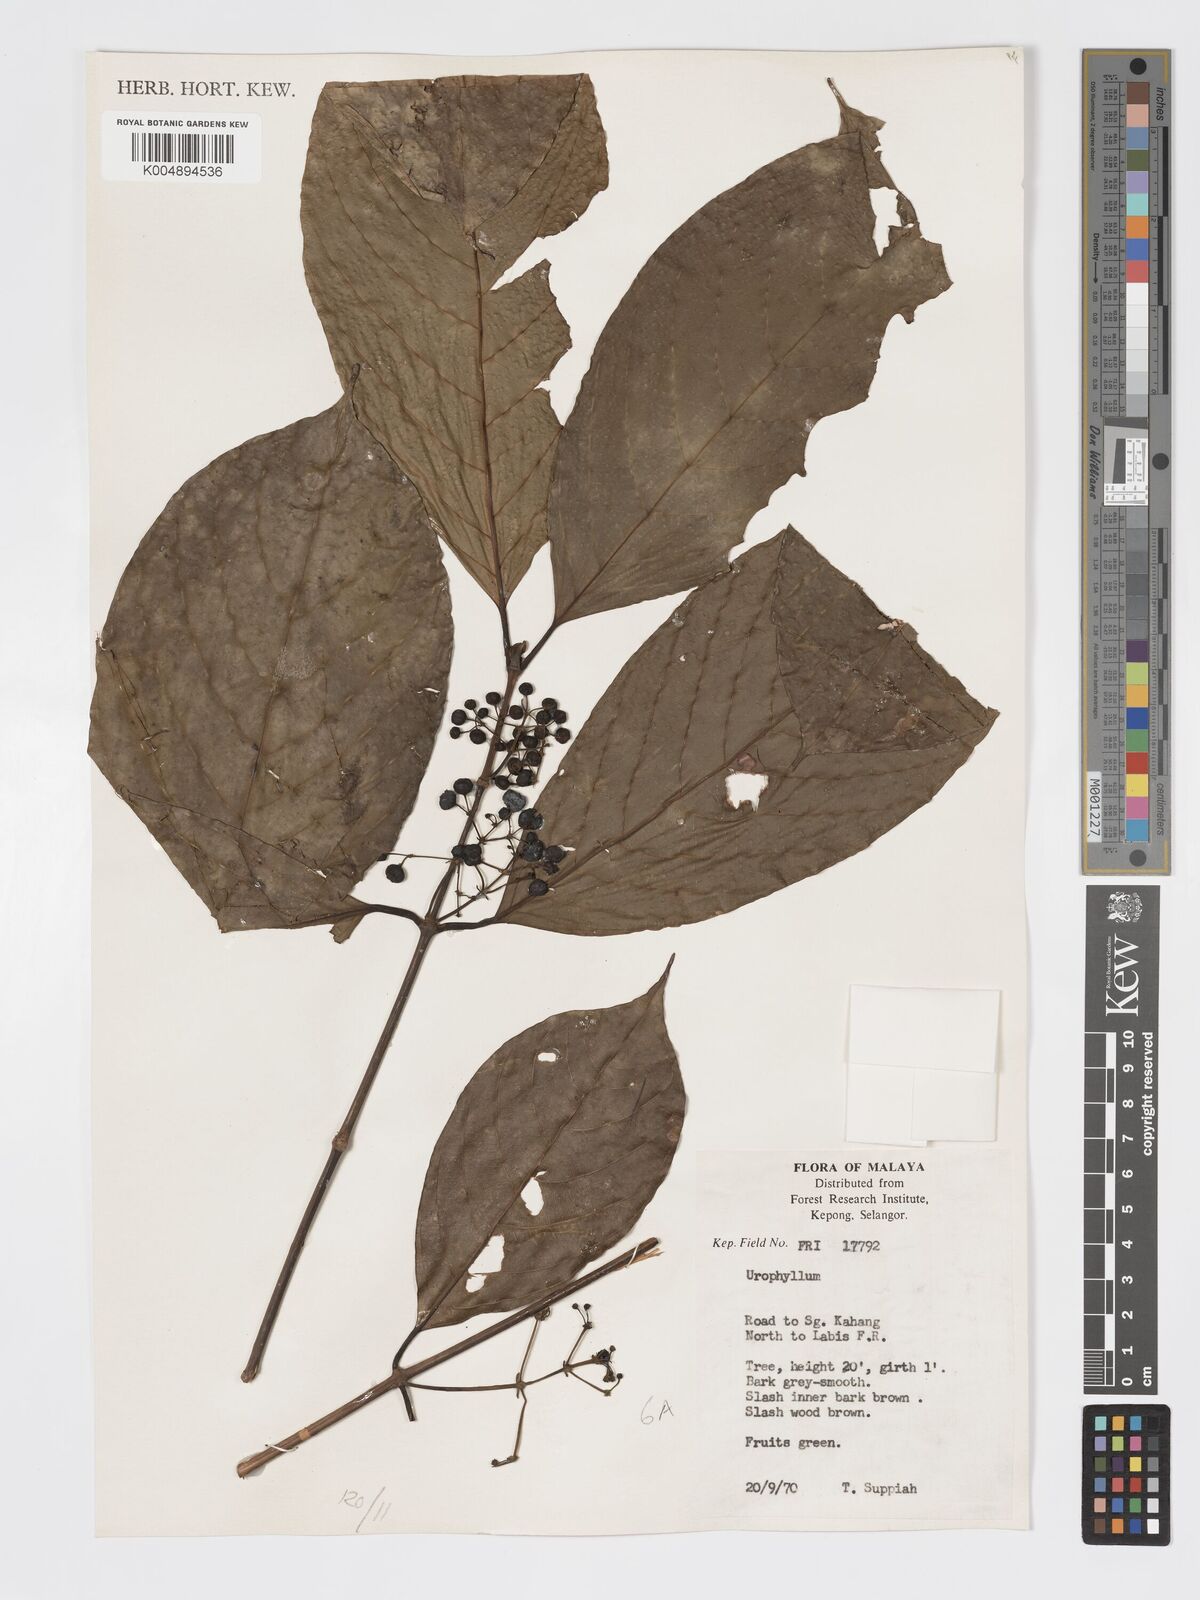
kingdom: Plantae
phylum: Tracheophyta
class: Magnoliopsida
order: Gentianales
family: Rubiaceae
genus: Urophyllum
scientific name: Urophyllum malayense
